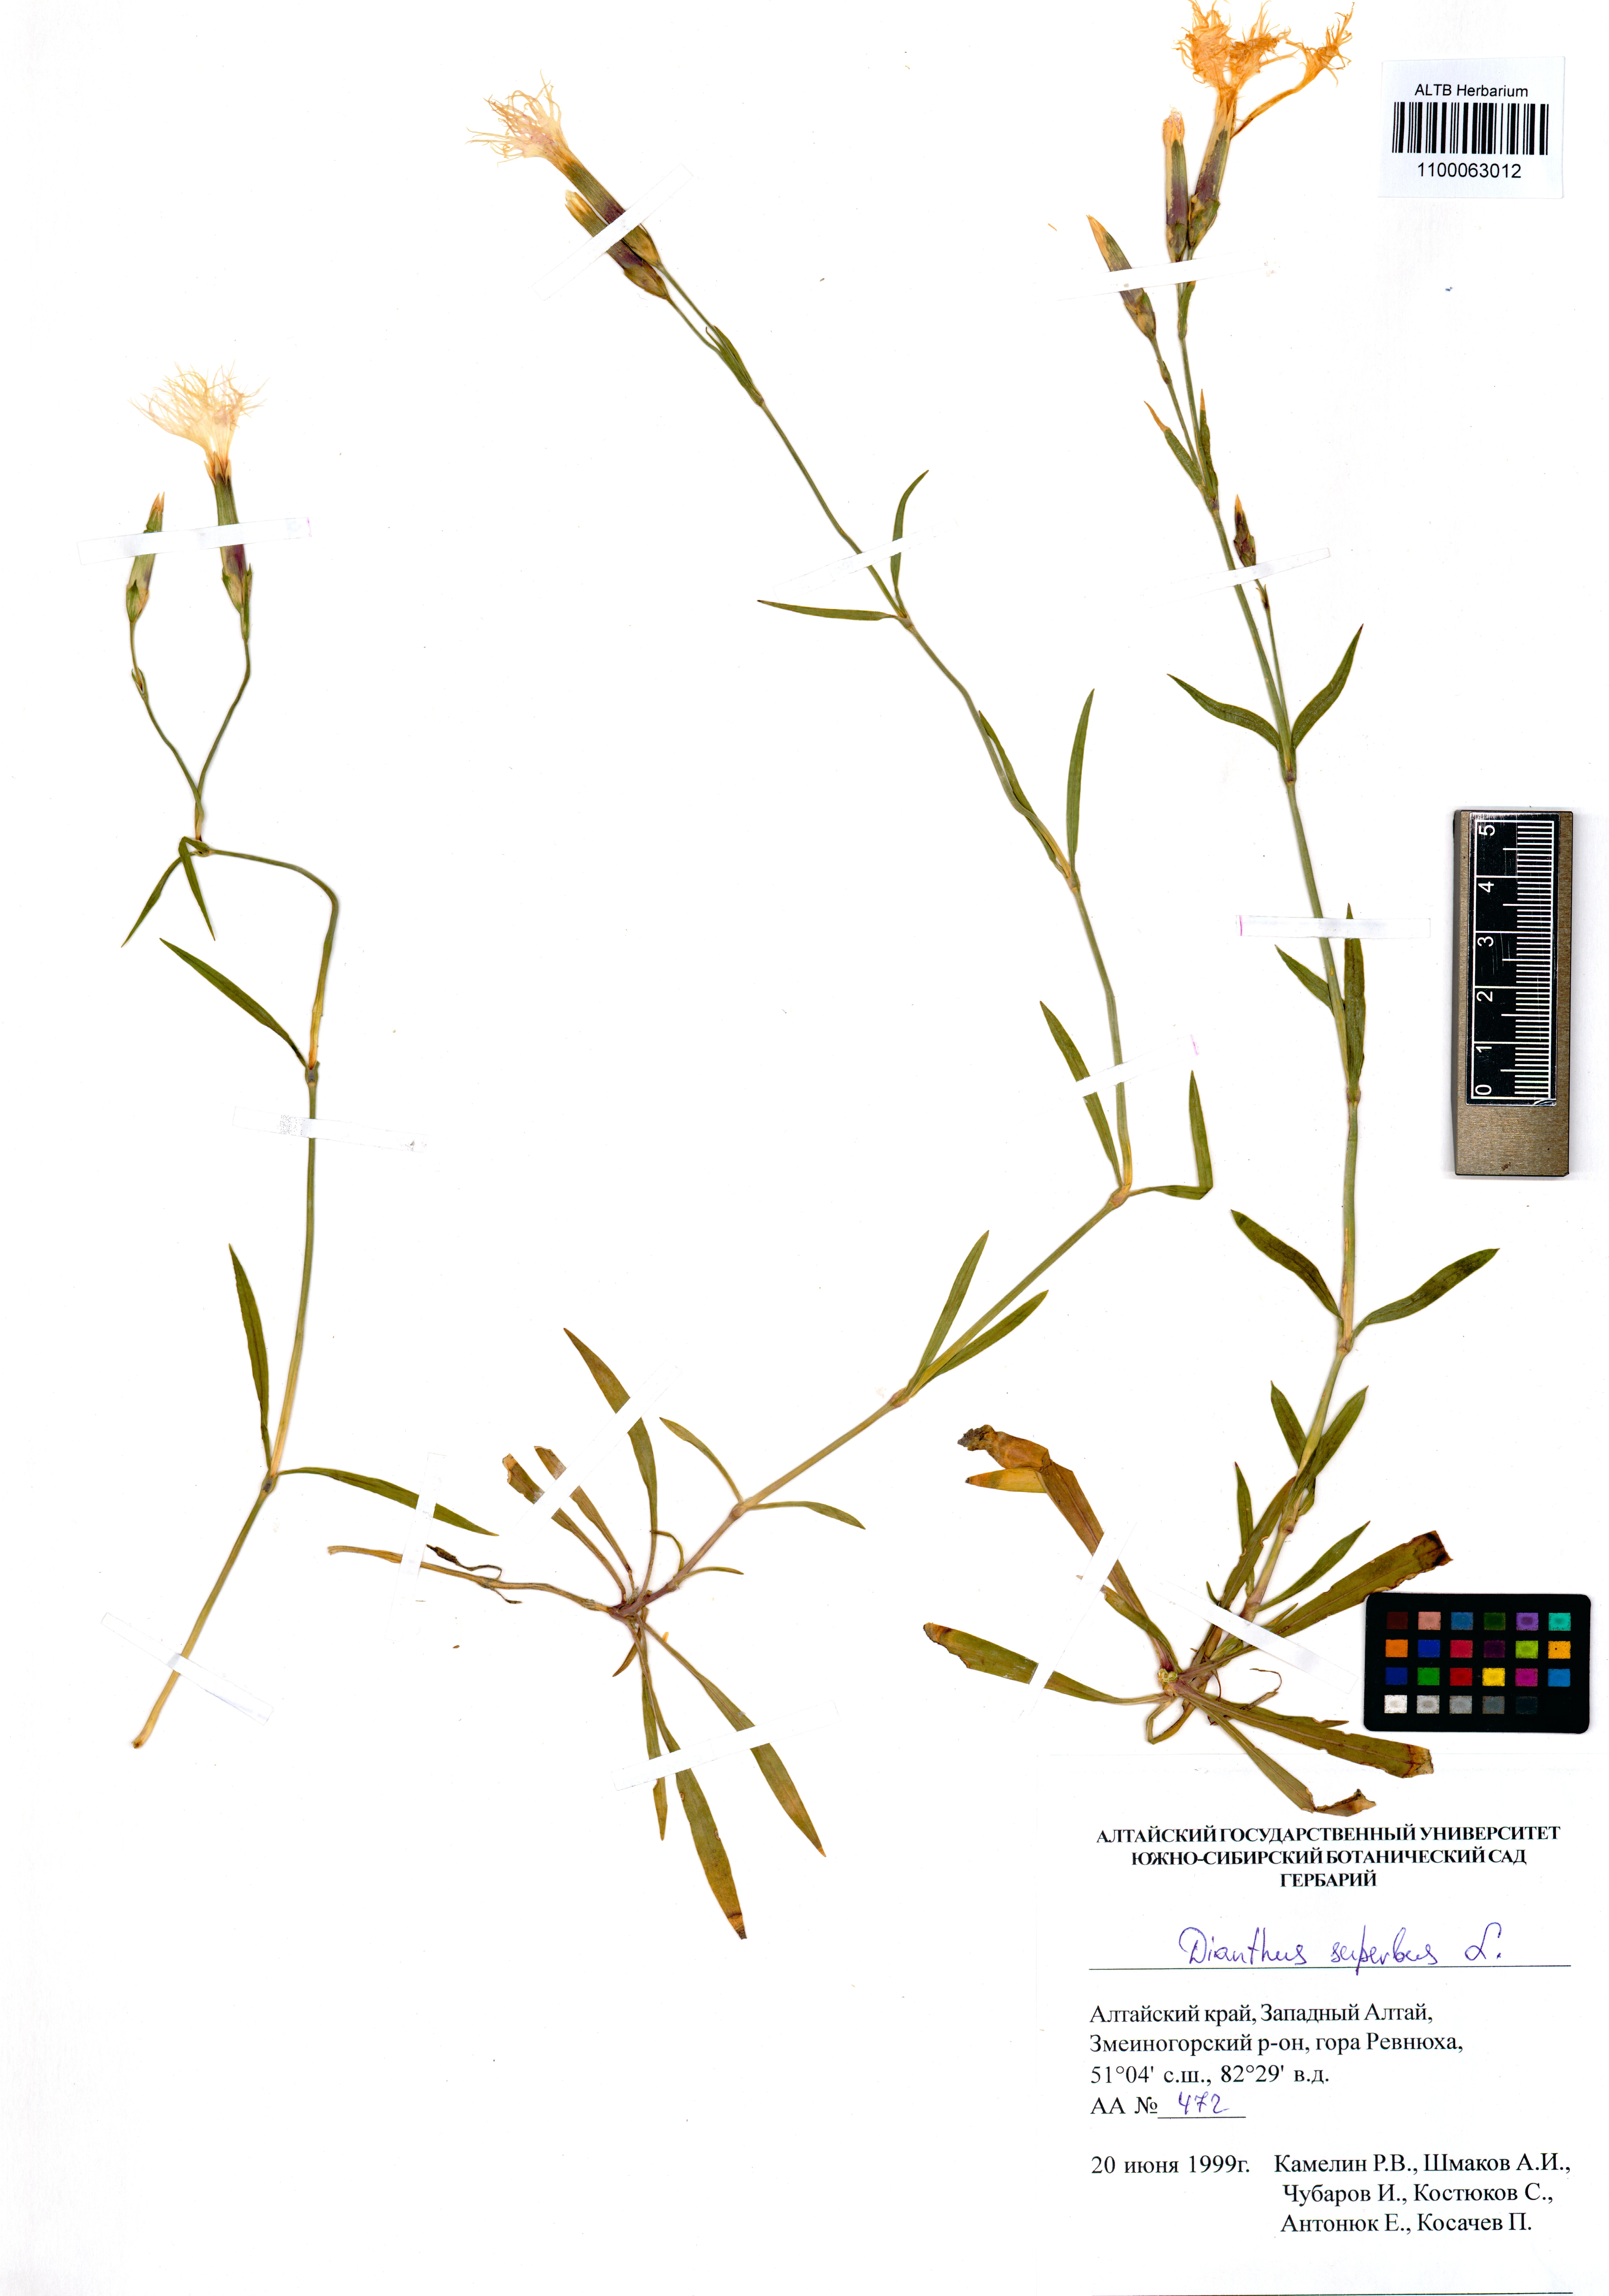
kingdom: Plantae
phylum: Tracheophyta
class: Magnoliopsida
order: Caryophyllales
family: Caryophyllaceae
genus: Dianthus
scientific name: Dianthus superbus
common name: Fringed pink
